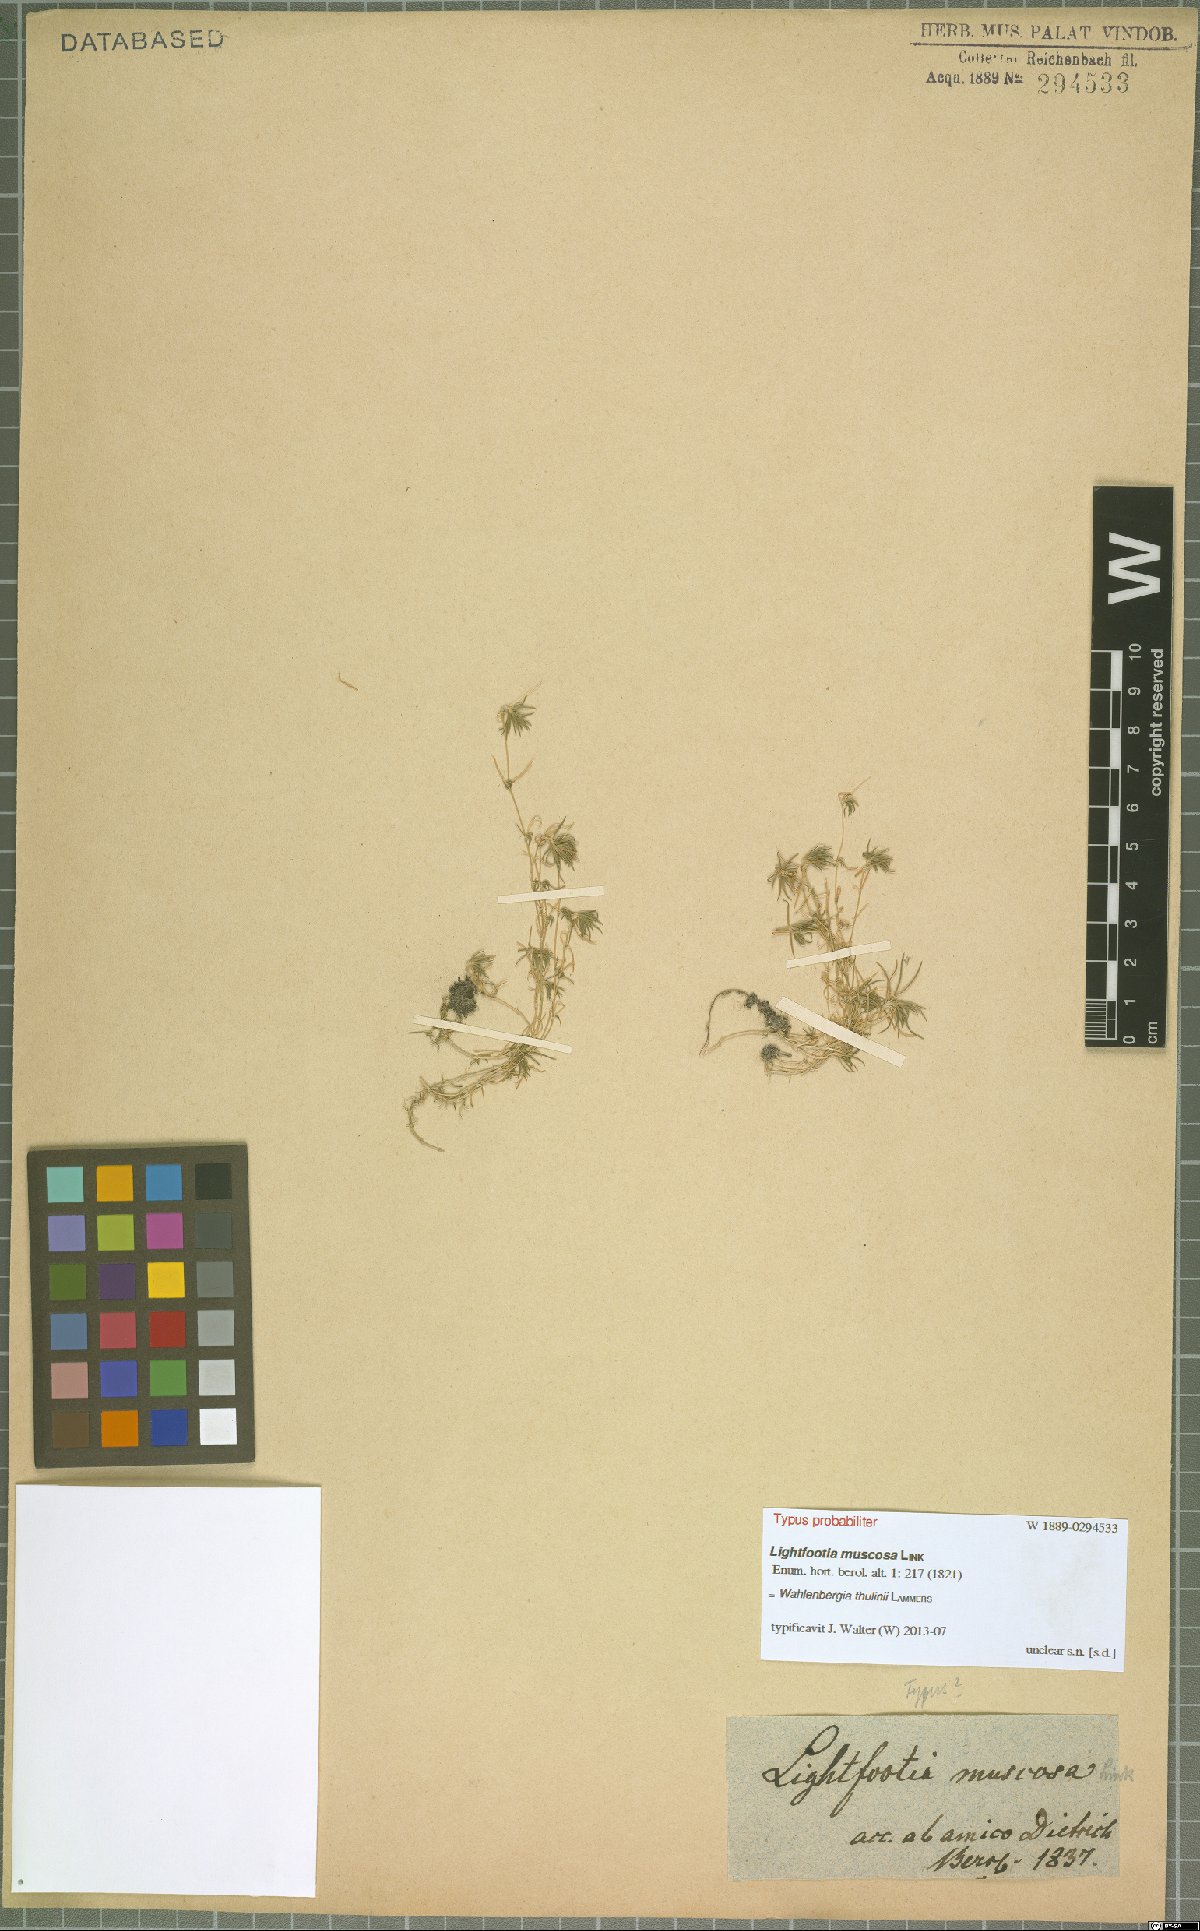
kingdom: Plantae
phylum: Tracheophyta
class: Magnoliopsida
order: Asterales
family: Campanulaceae
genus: Wahlenbergia
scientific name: Wahlenbergia thulinii
